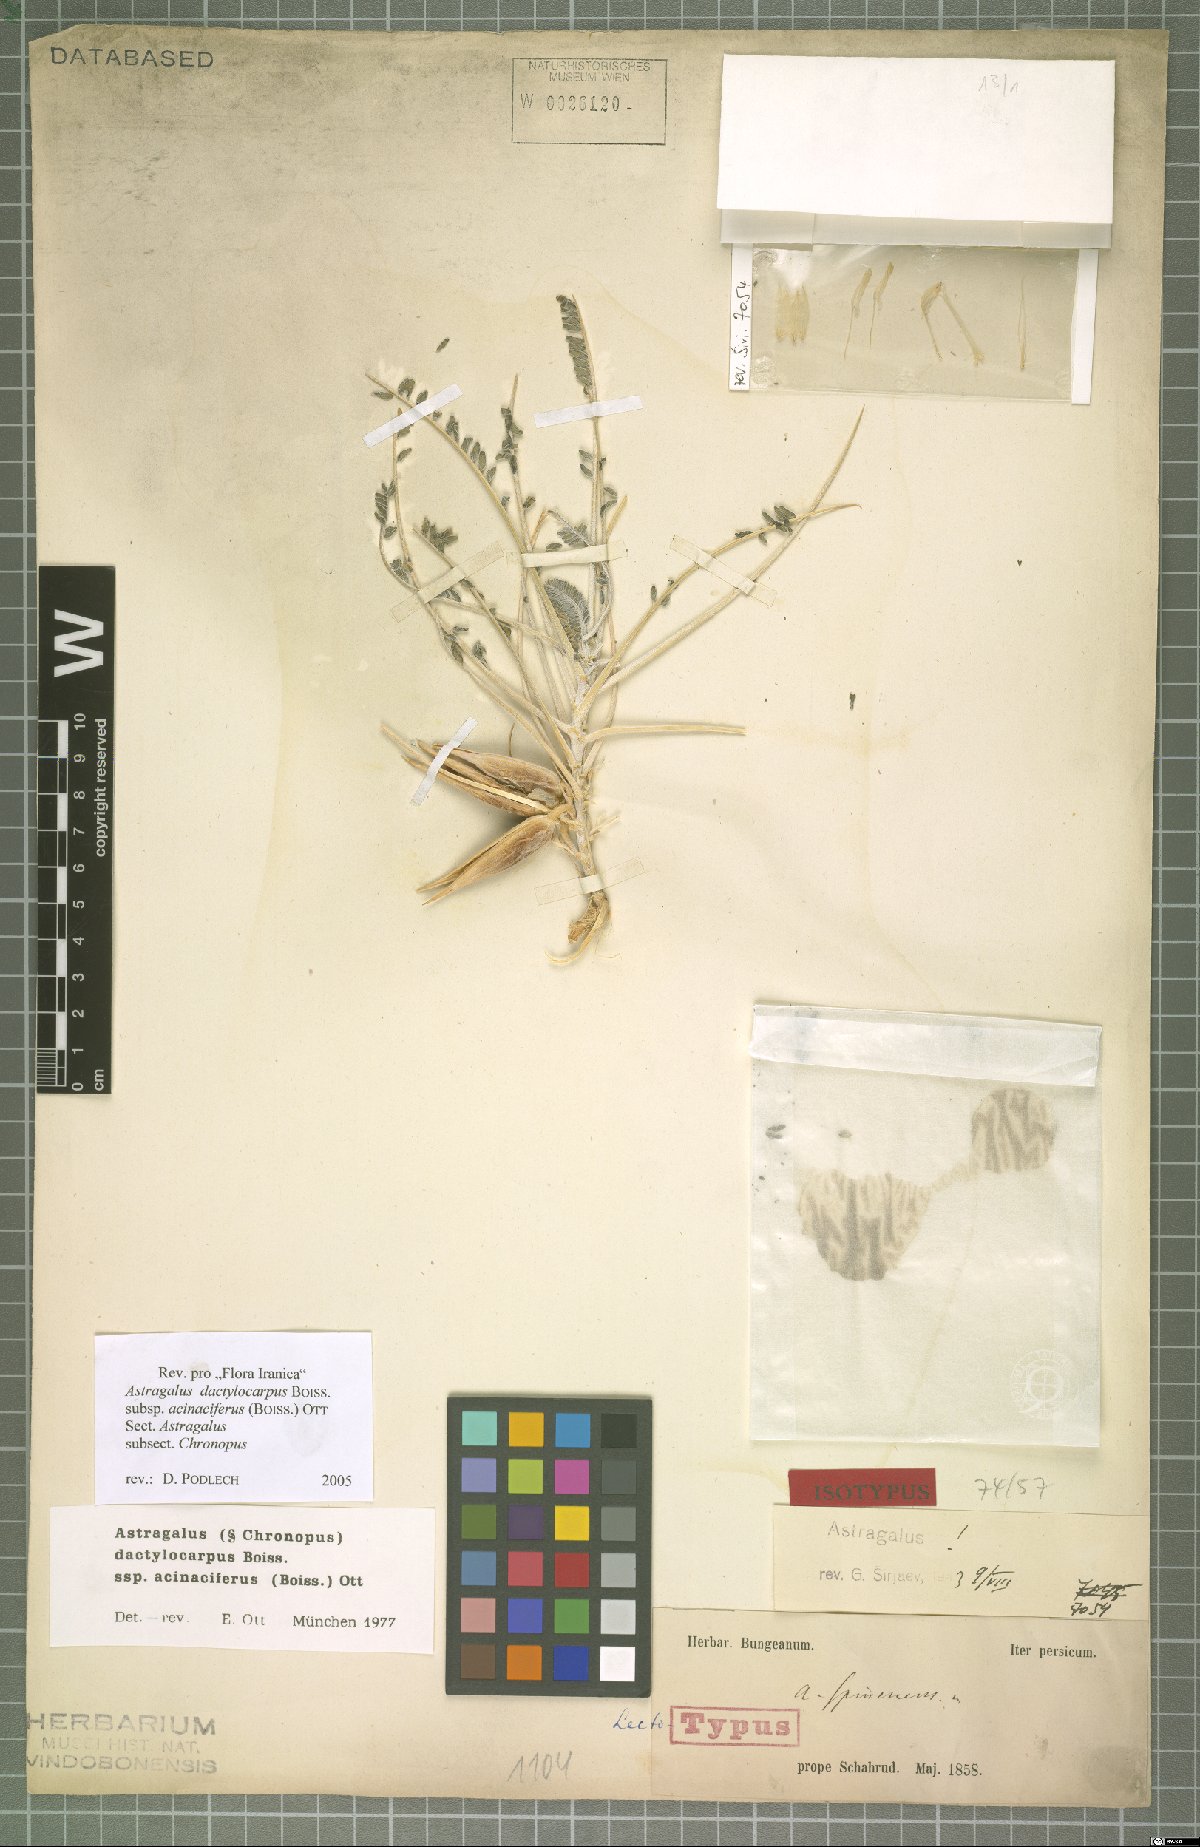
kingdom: Plantae
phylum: Tracheophyta
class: Magnoliopsida
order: Fabales
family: Fabaceae
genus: Astragalus
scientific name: Astragalus dactylocarpus
